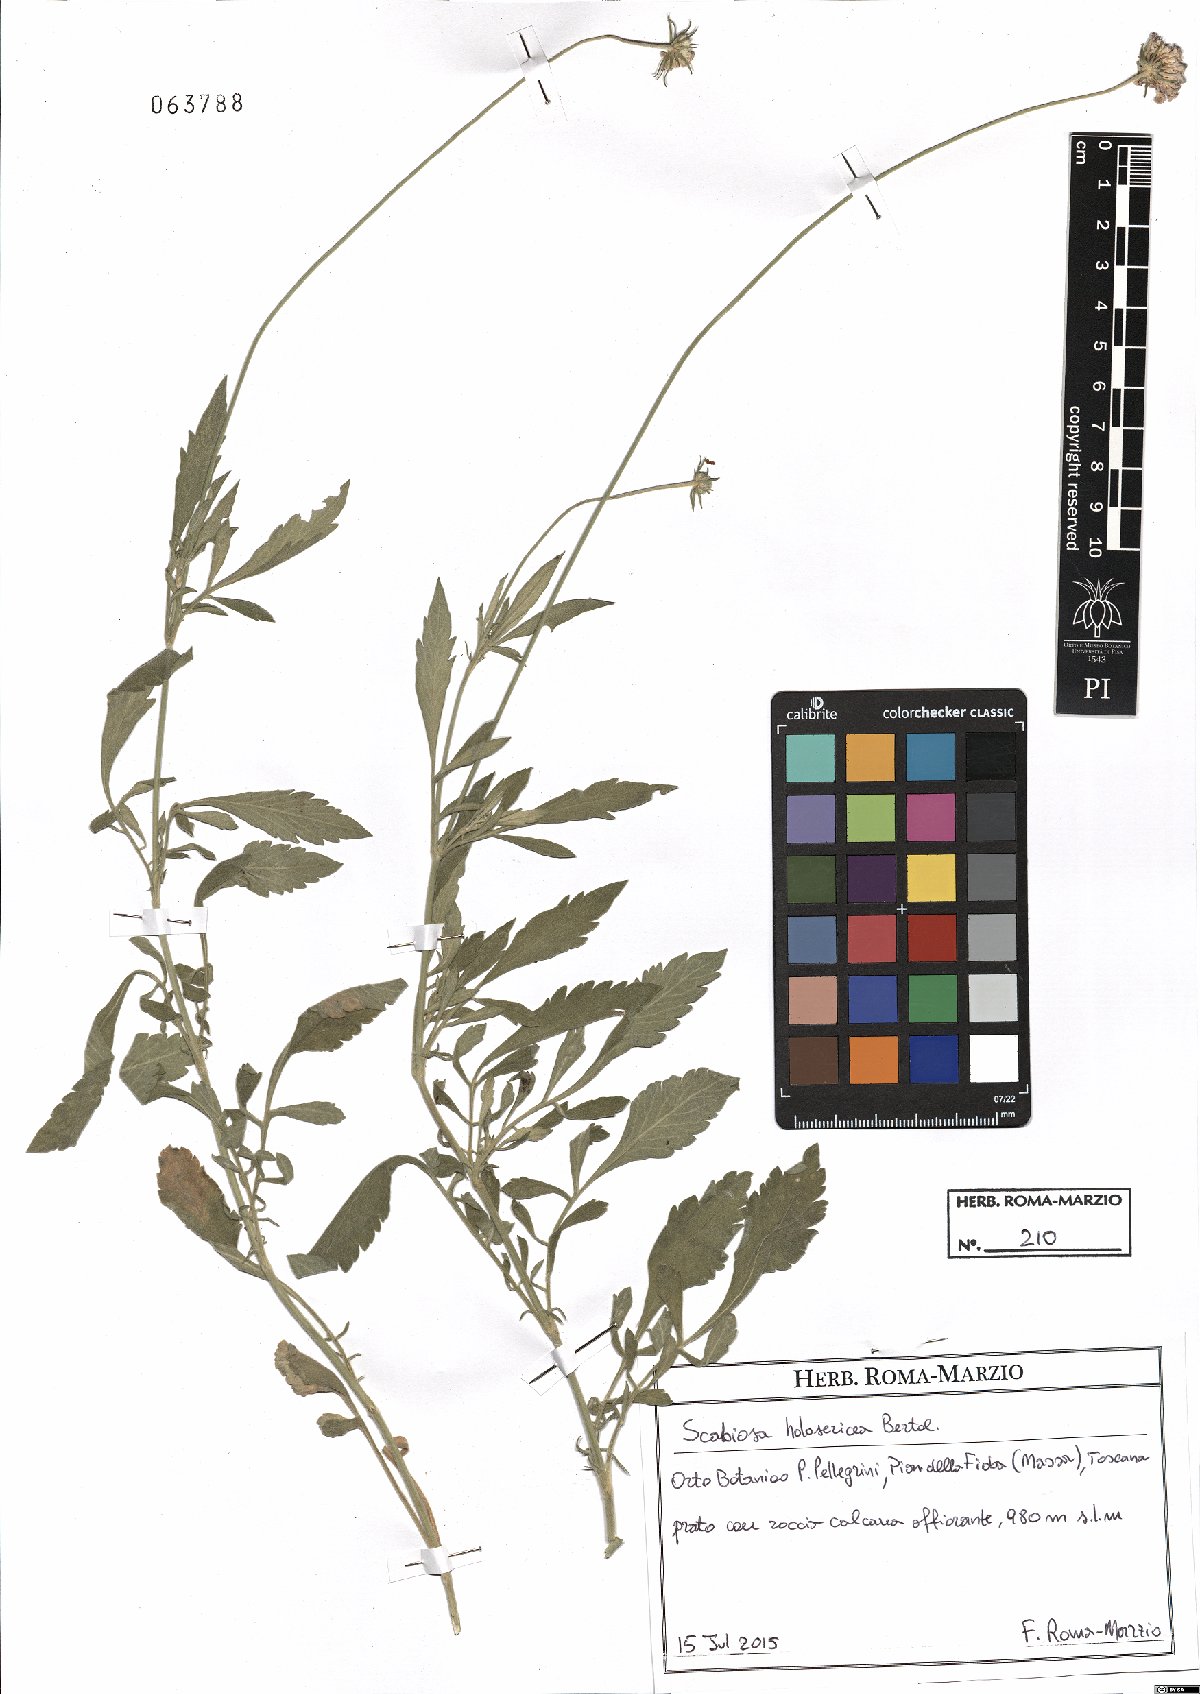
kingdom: Plantae
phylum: Tracheophyta
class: Magnoliopsida
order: Dipsacales
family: Caprifoliaceae
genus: Scabiosa
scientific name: Scabiosa holosericea
